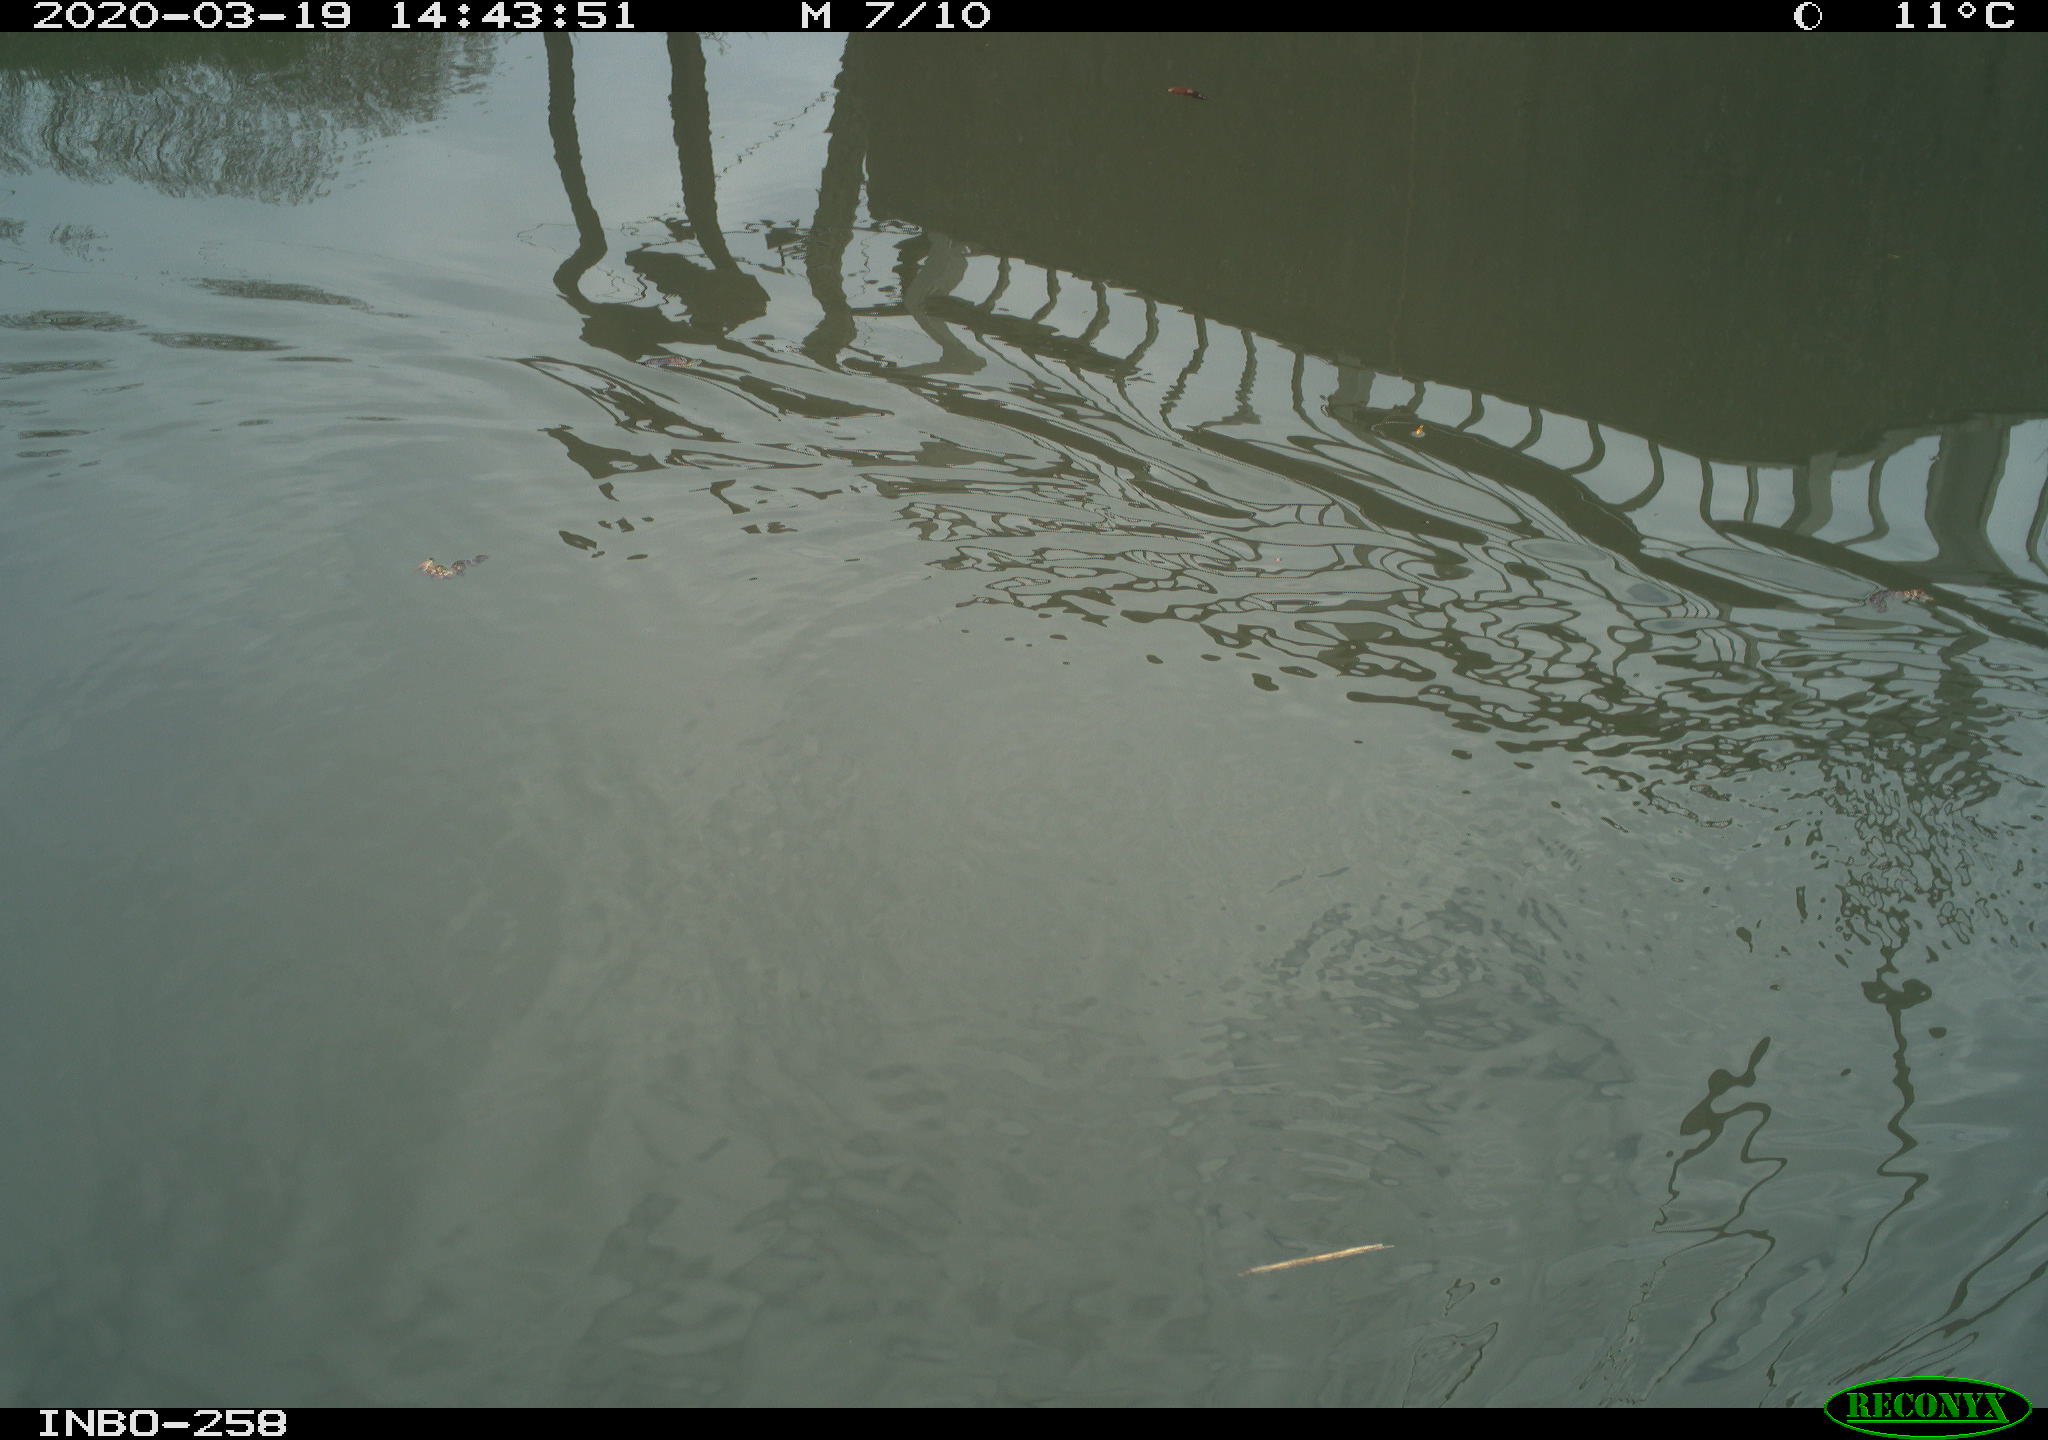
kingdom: Animalia
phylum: Chordata
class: Aves
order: Gruiformes
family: Rallidae
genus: Gallinula
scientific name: Gallinula chloropus
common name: Common moorhen
